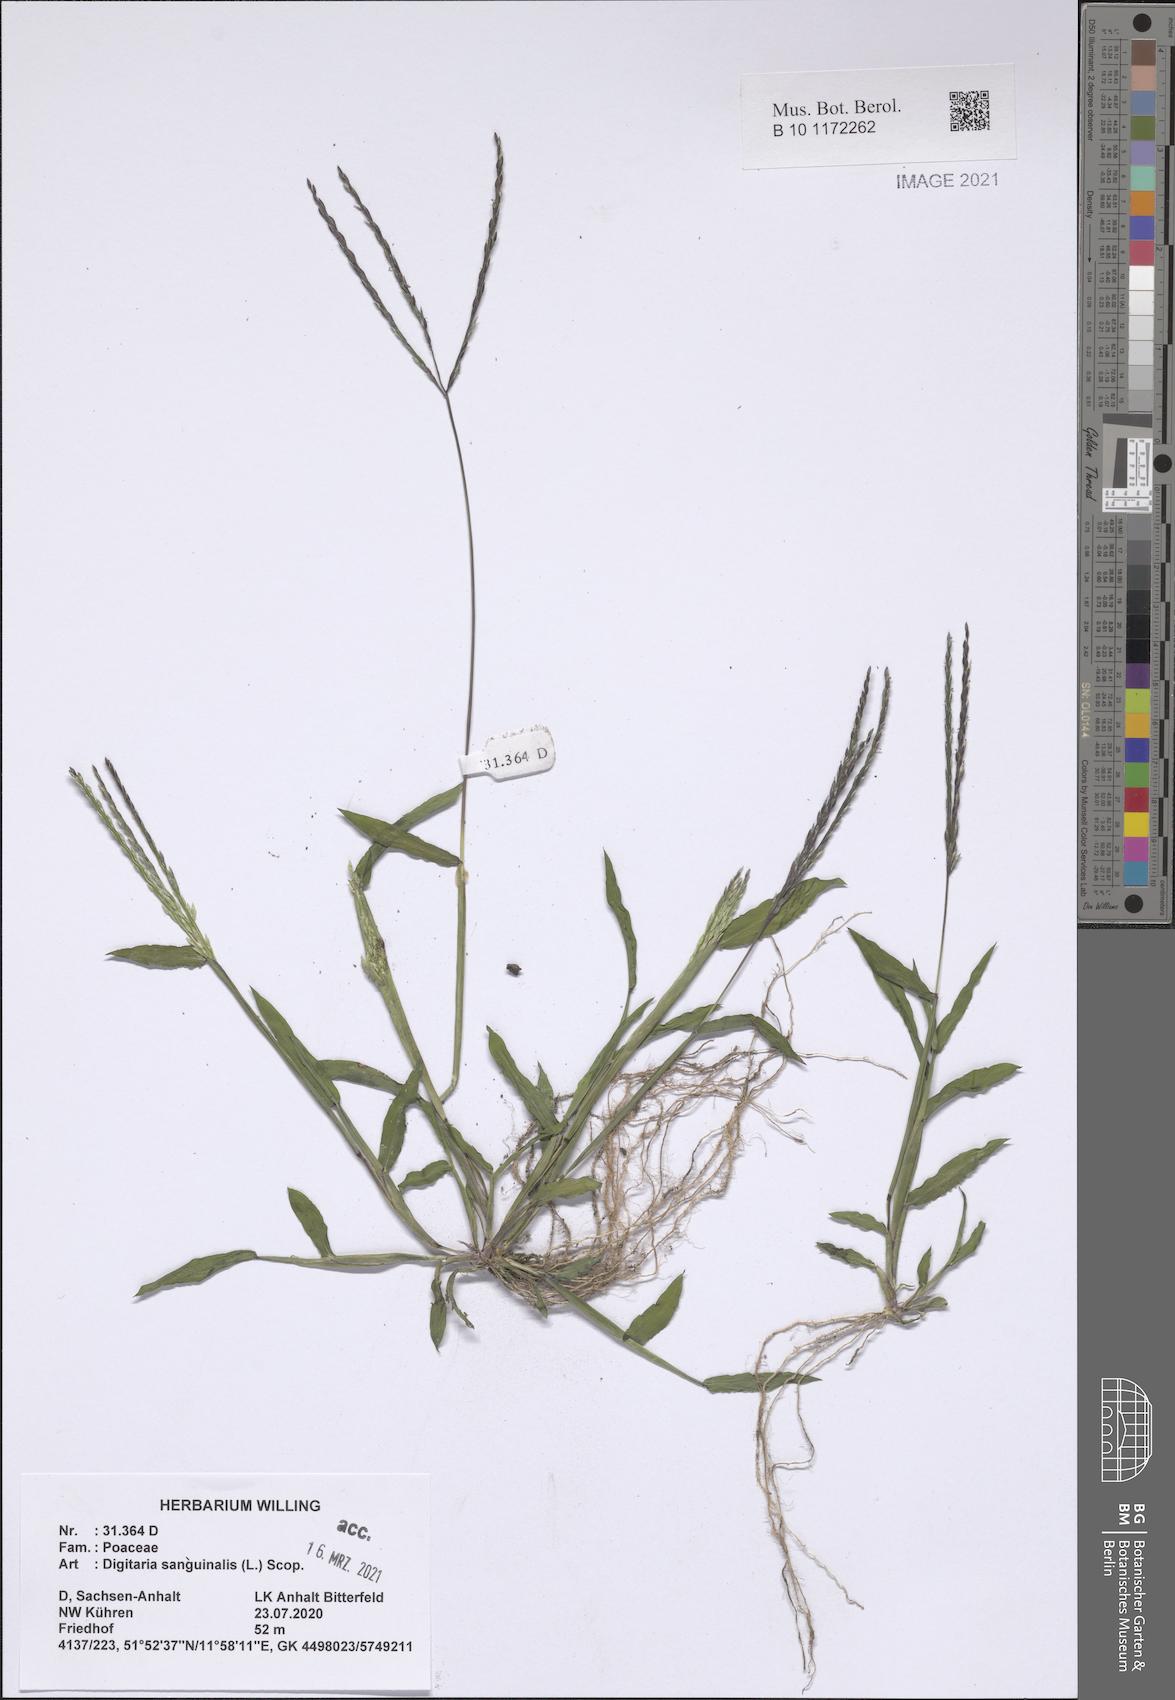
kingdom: Plantae
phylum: Tracheophyta
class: Liliopsida
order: Poales
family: Poaceae
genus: Digitaria
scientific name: Digitaria sanguinalis
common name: Hairy crabgrass
